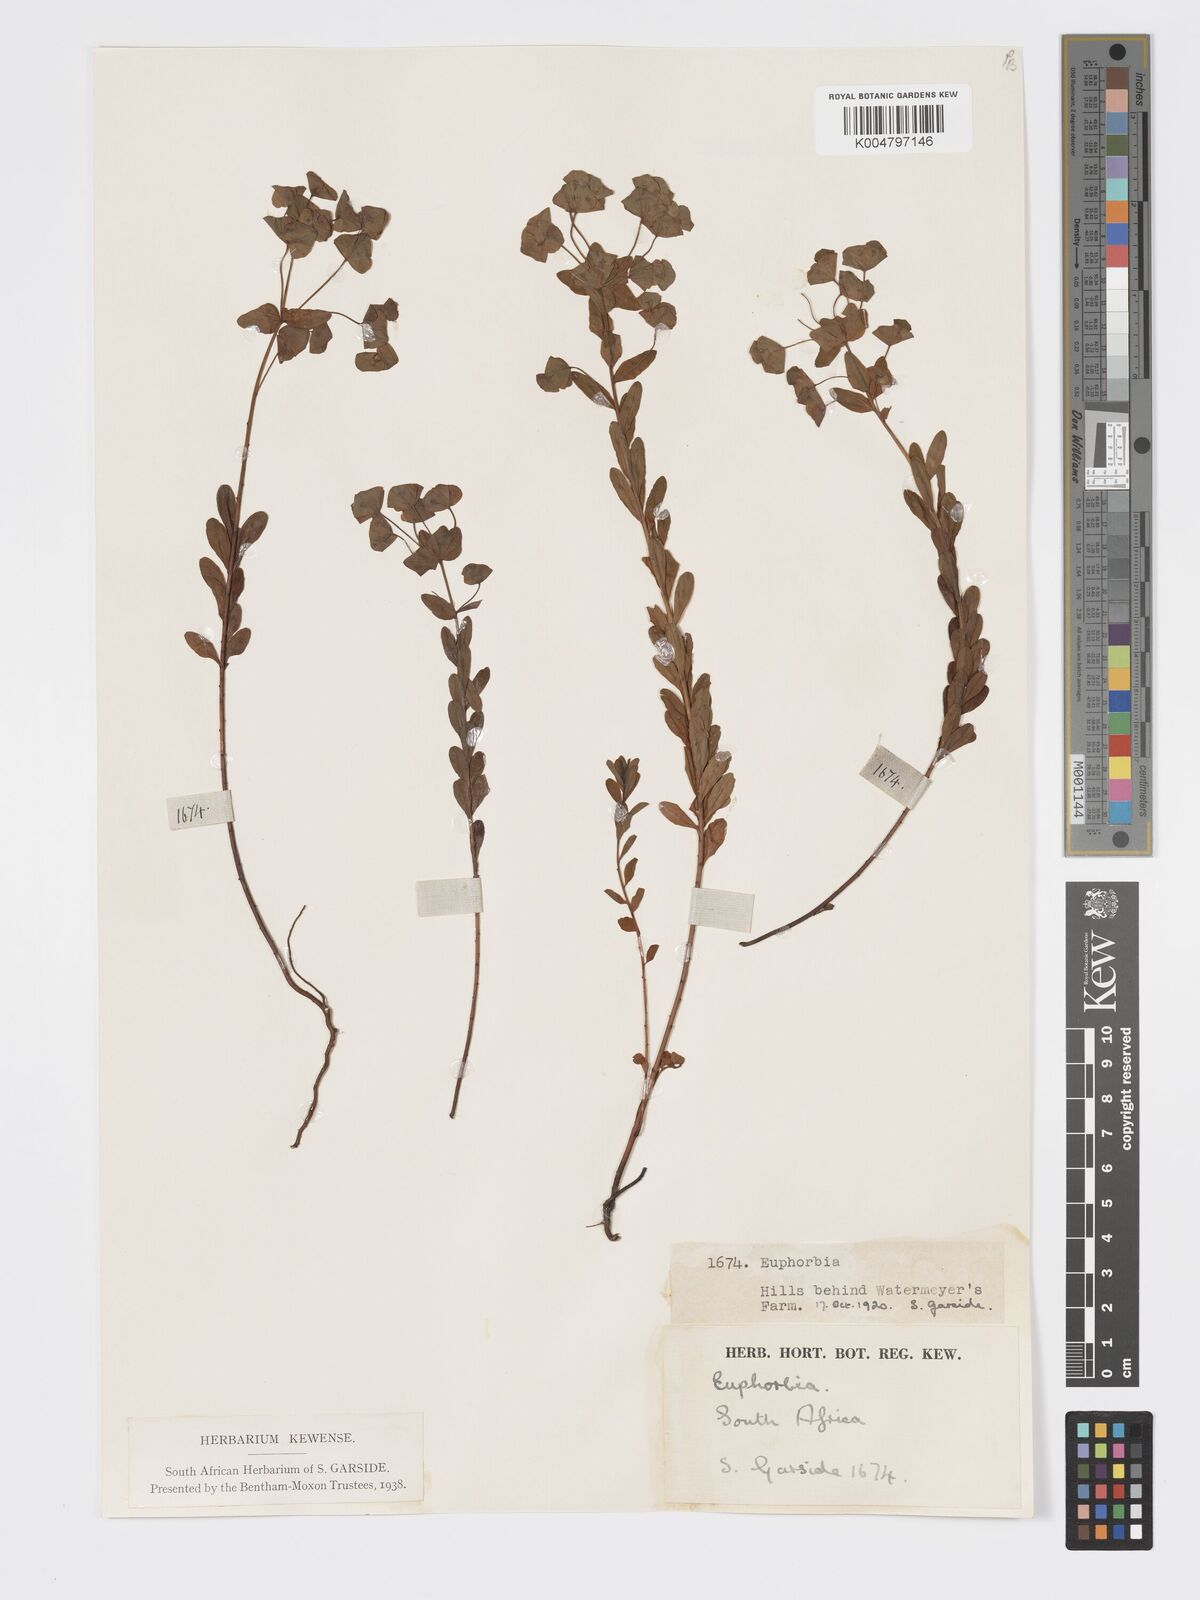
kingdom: Plantae
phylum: Tracheophyta
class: Magnoliopsida
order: Malpighiales
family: Euphorbiaceae
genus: Euphorbia
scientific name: Euphorbia
